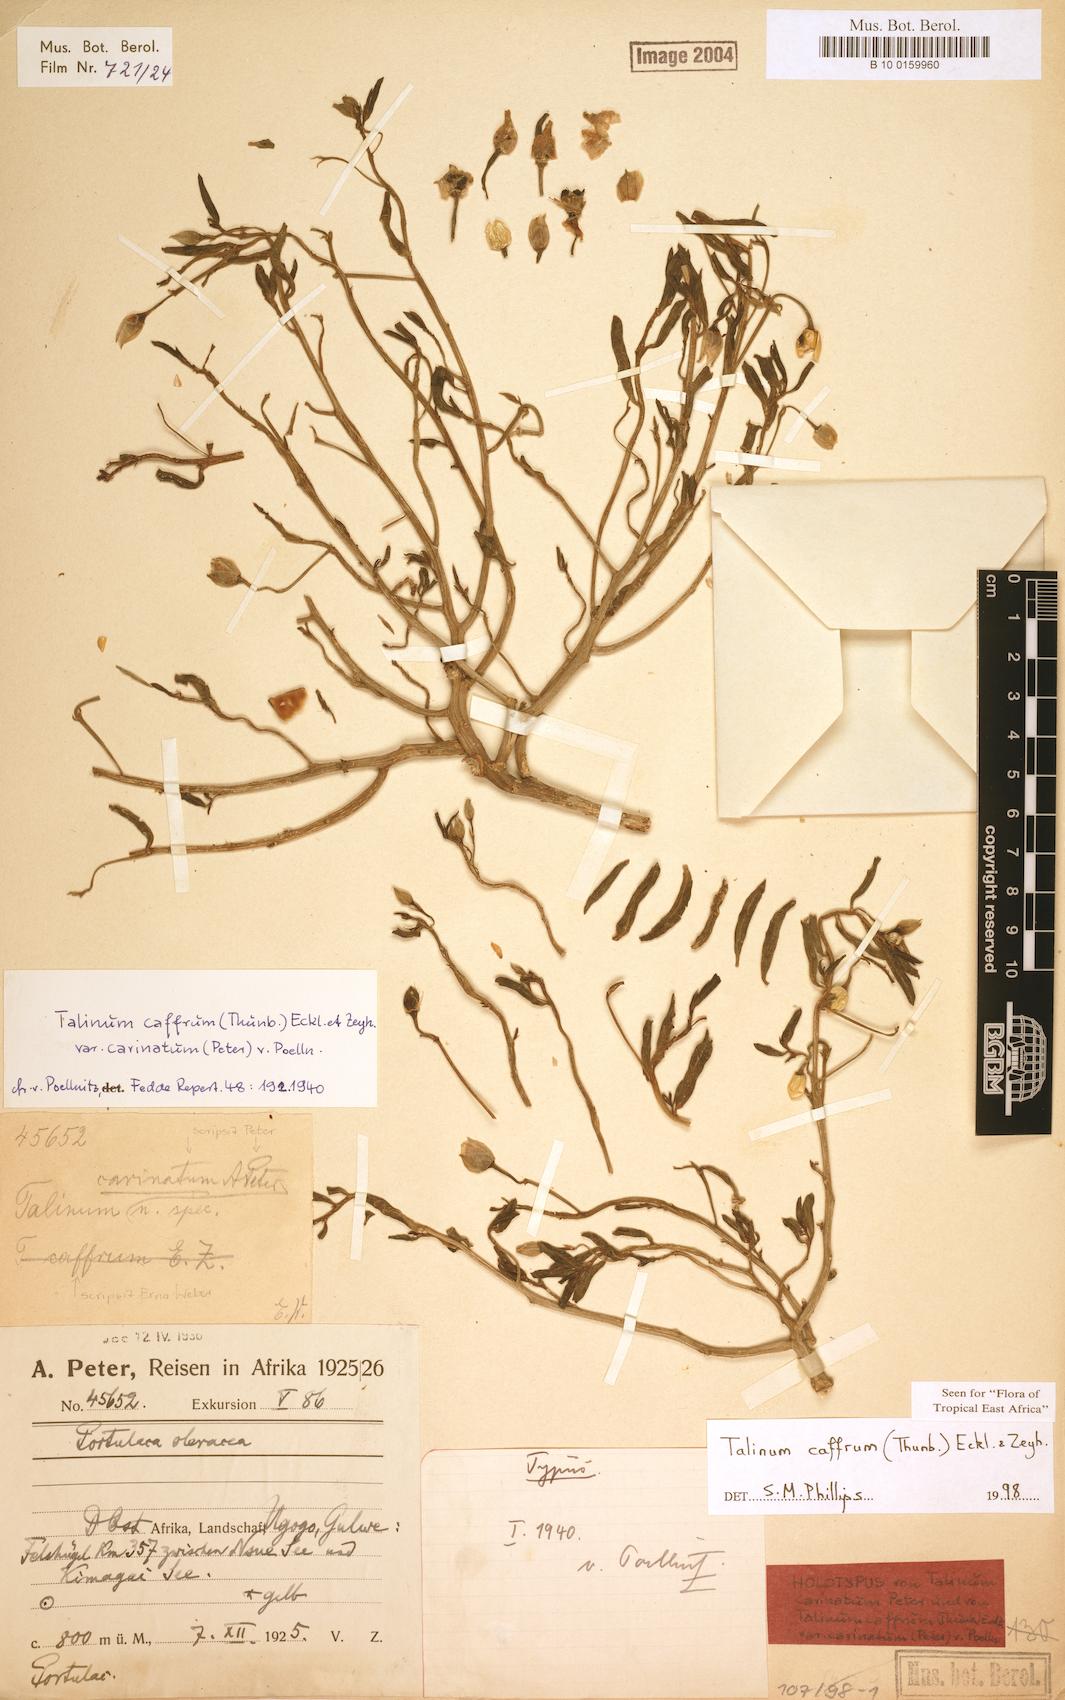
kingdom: Plantae
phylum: Tracheophyta
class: Magnoliopsida
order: Caryophyllales
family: Talinaceae
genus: Talinum
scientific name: Talinum caffrum
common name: Flameflower
